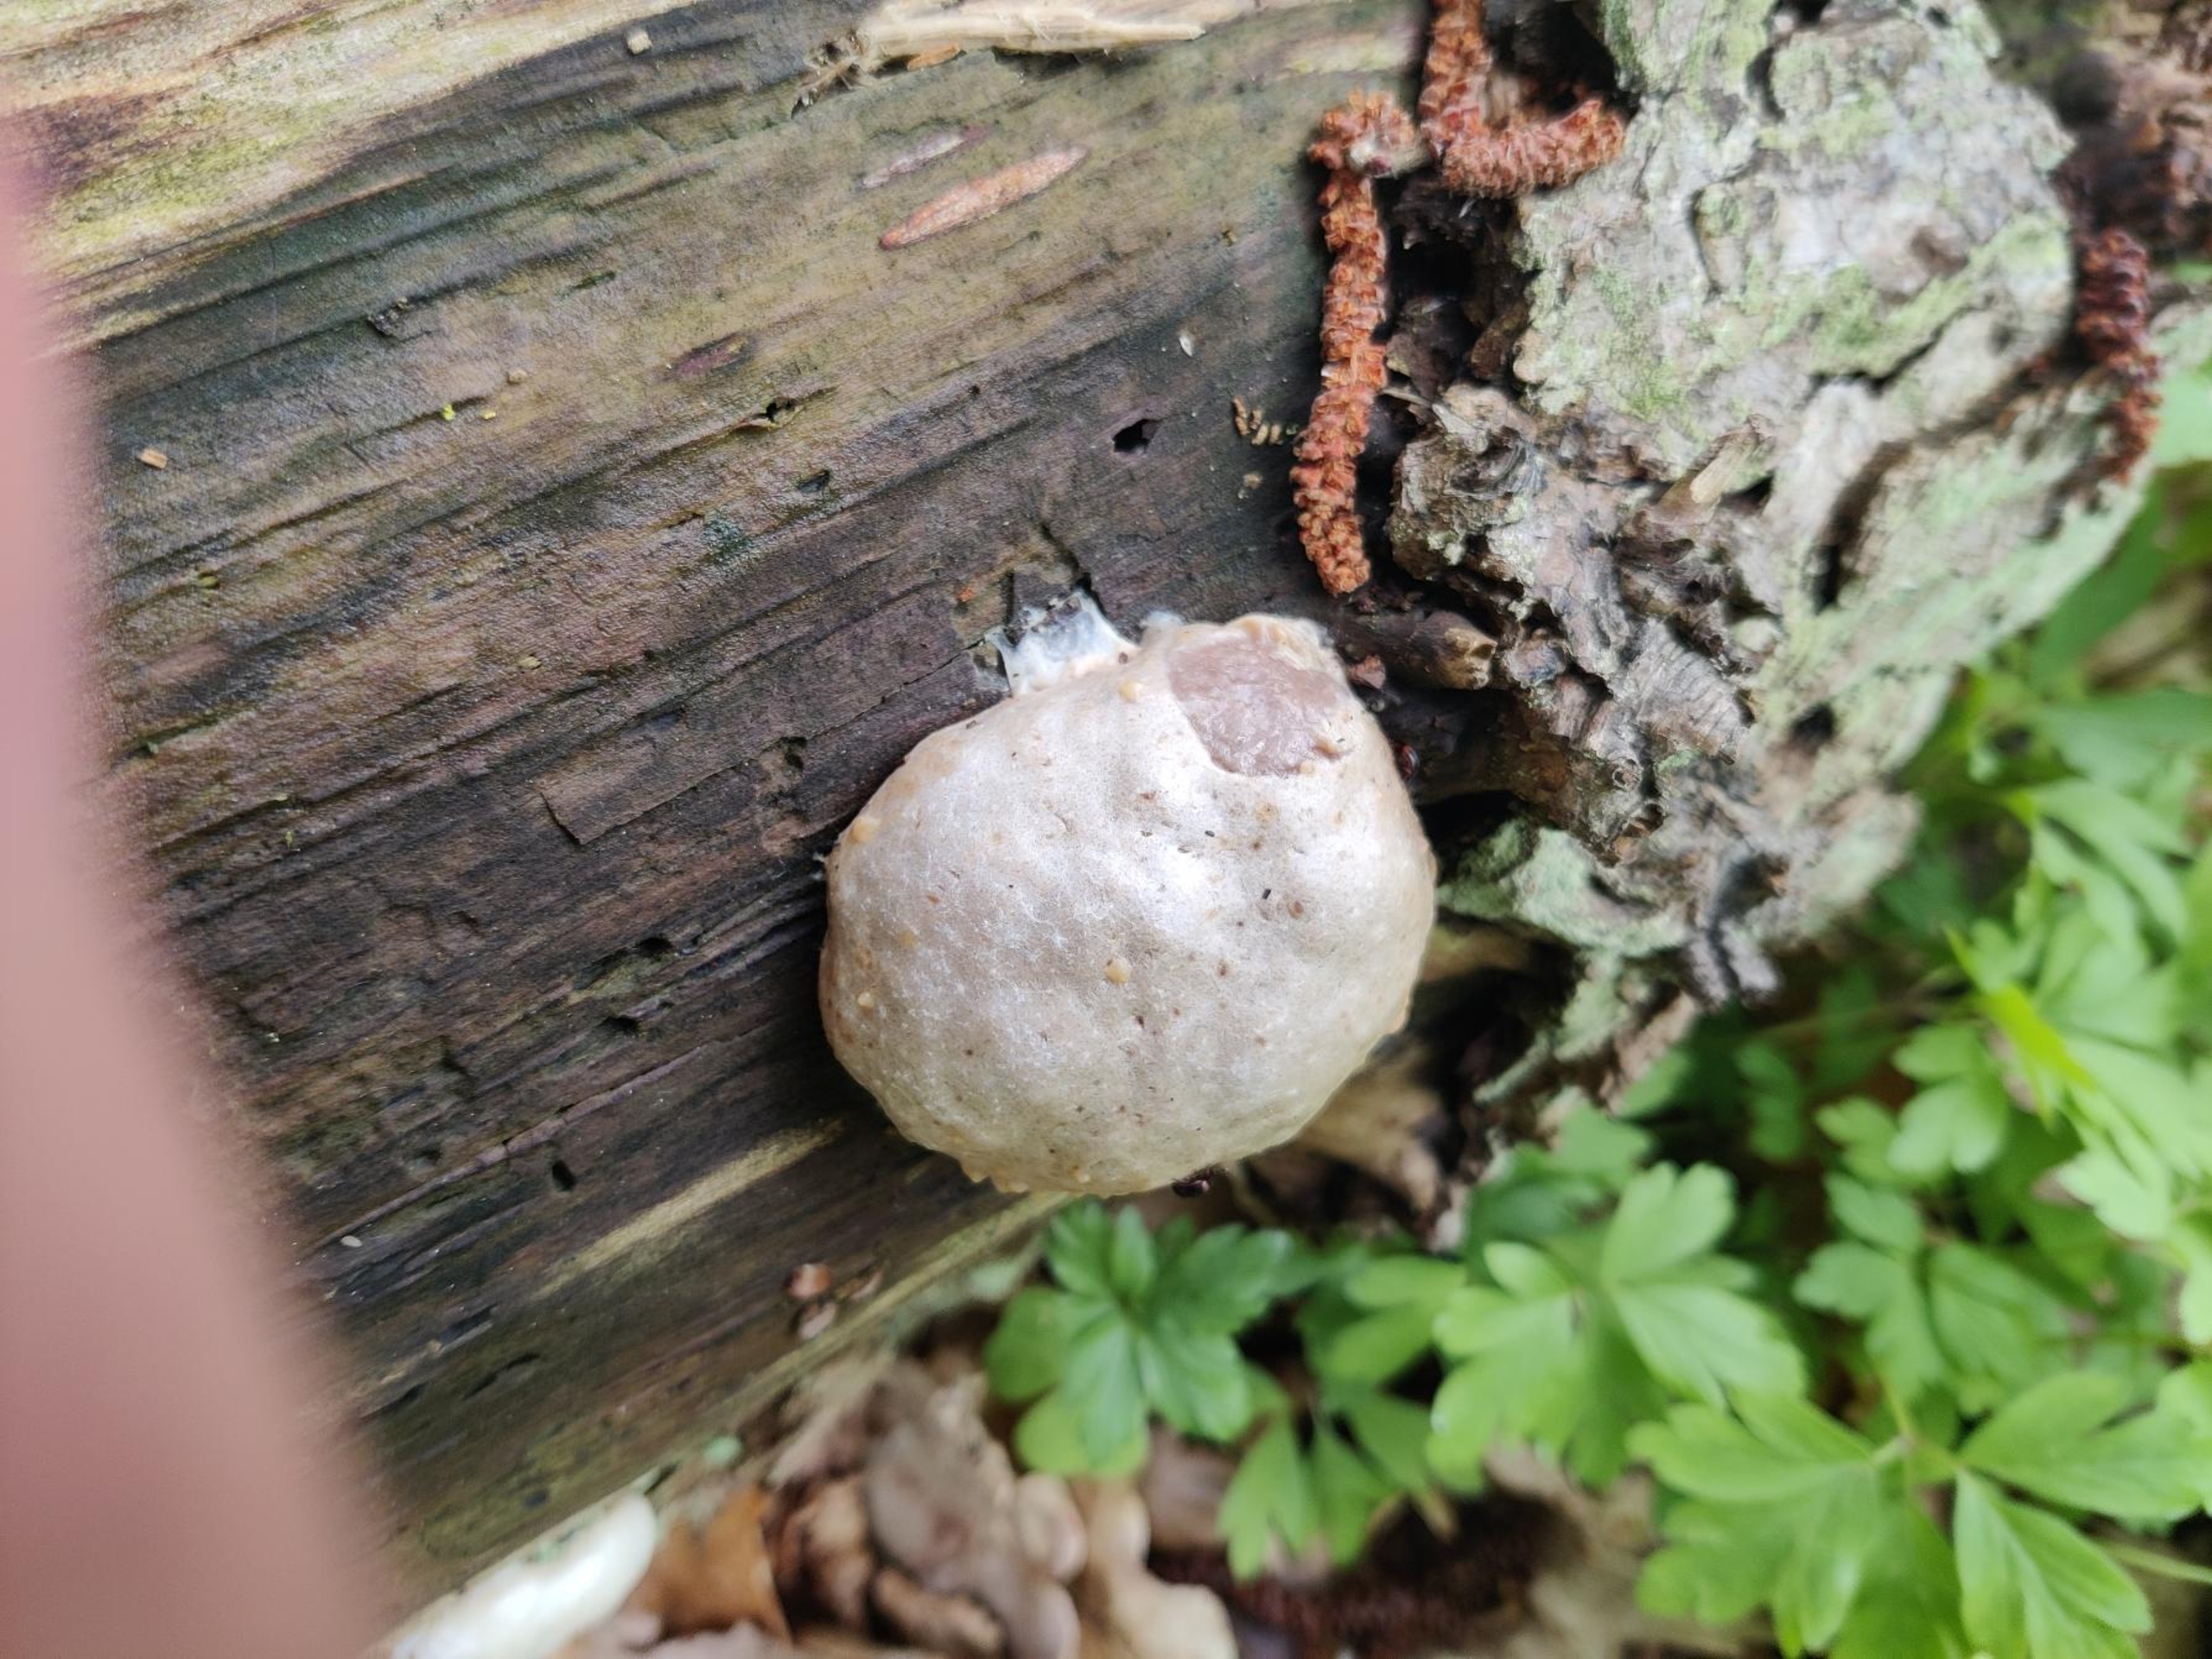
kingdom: Protozoa
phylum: Mycetozoa
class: Myxomycetes
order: Cribrariales
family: Tubiferaceae
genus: Reticularia
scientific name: Reticularia lycoperdon
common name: Skinnende støvpude
